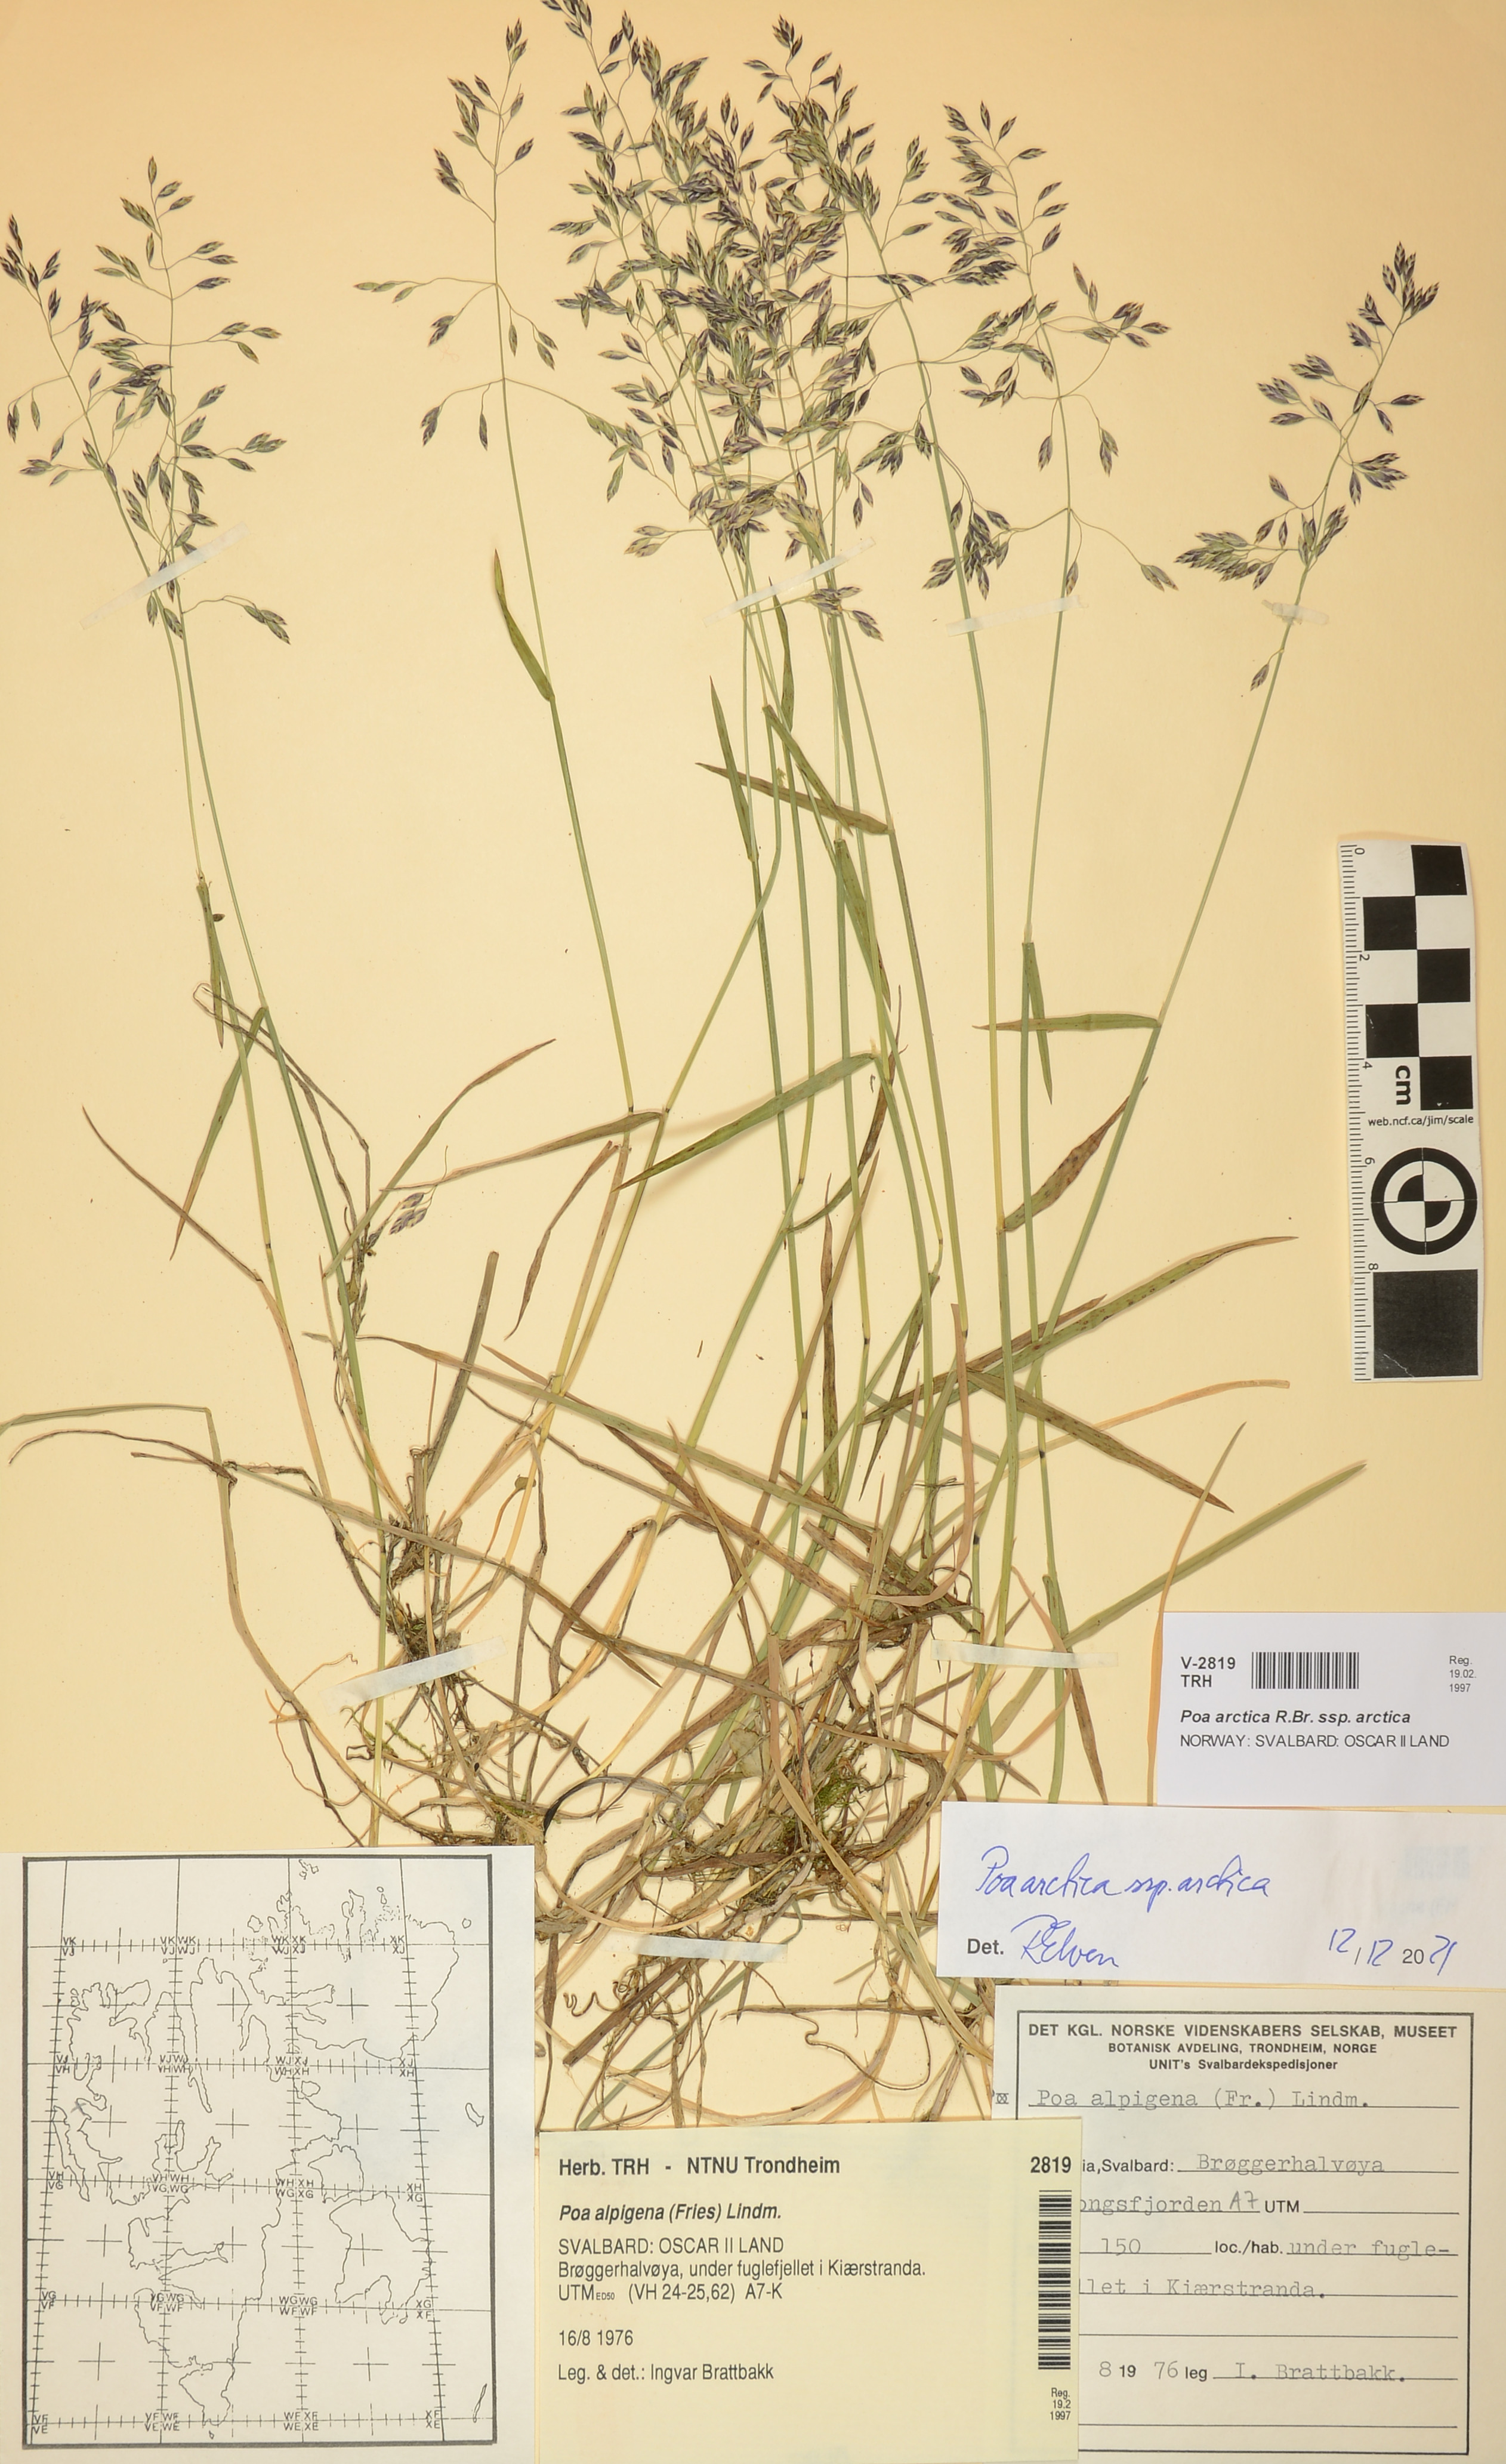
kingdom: Plantae
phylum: Tracheophyta
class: Liliopsida
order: Poales
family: Poaceae
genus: Poa
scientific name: Poa arctica
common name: Arctic bluegrass
